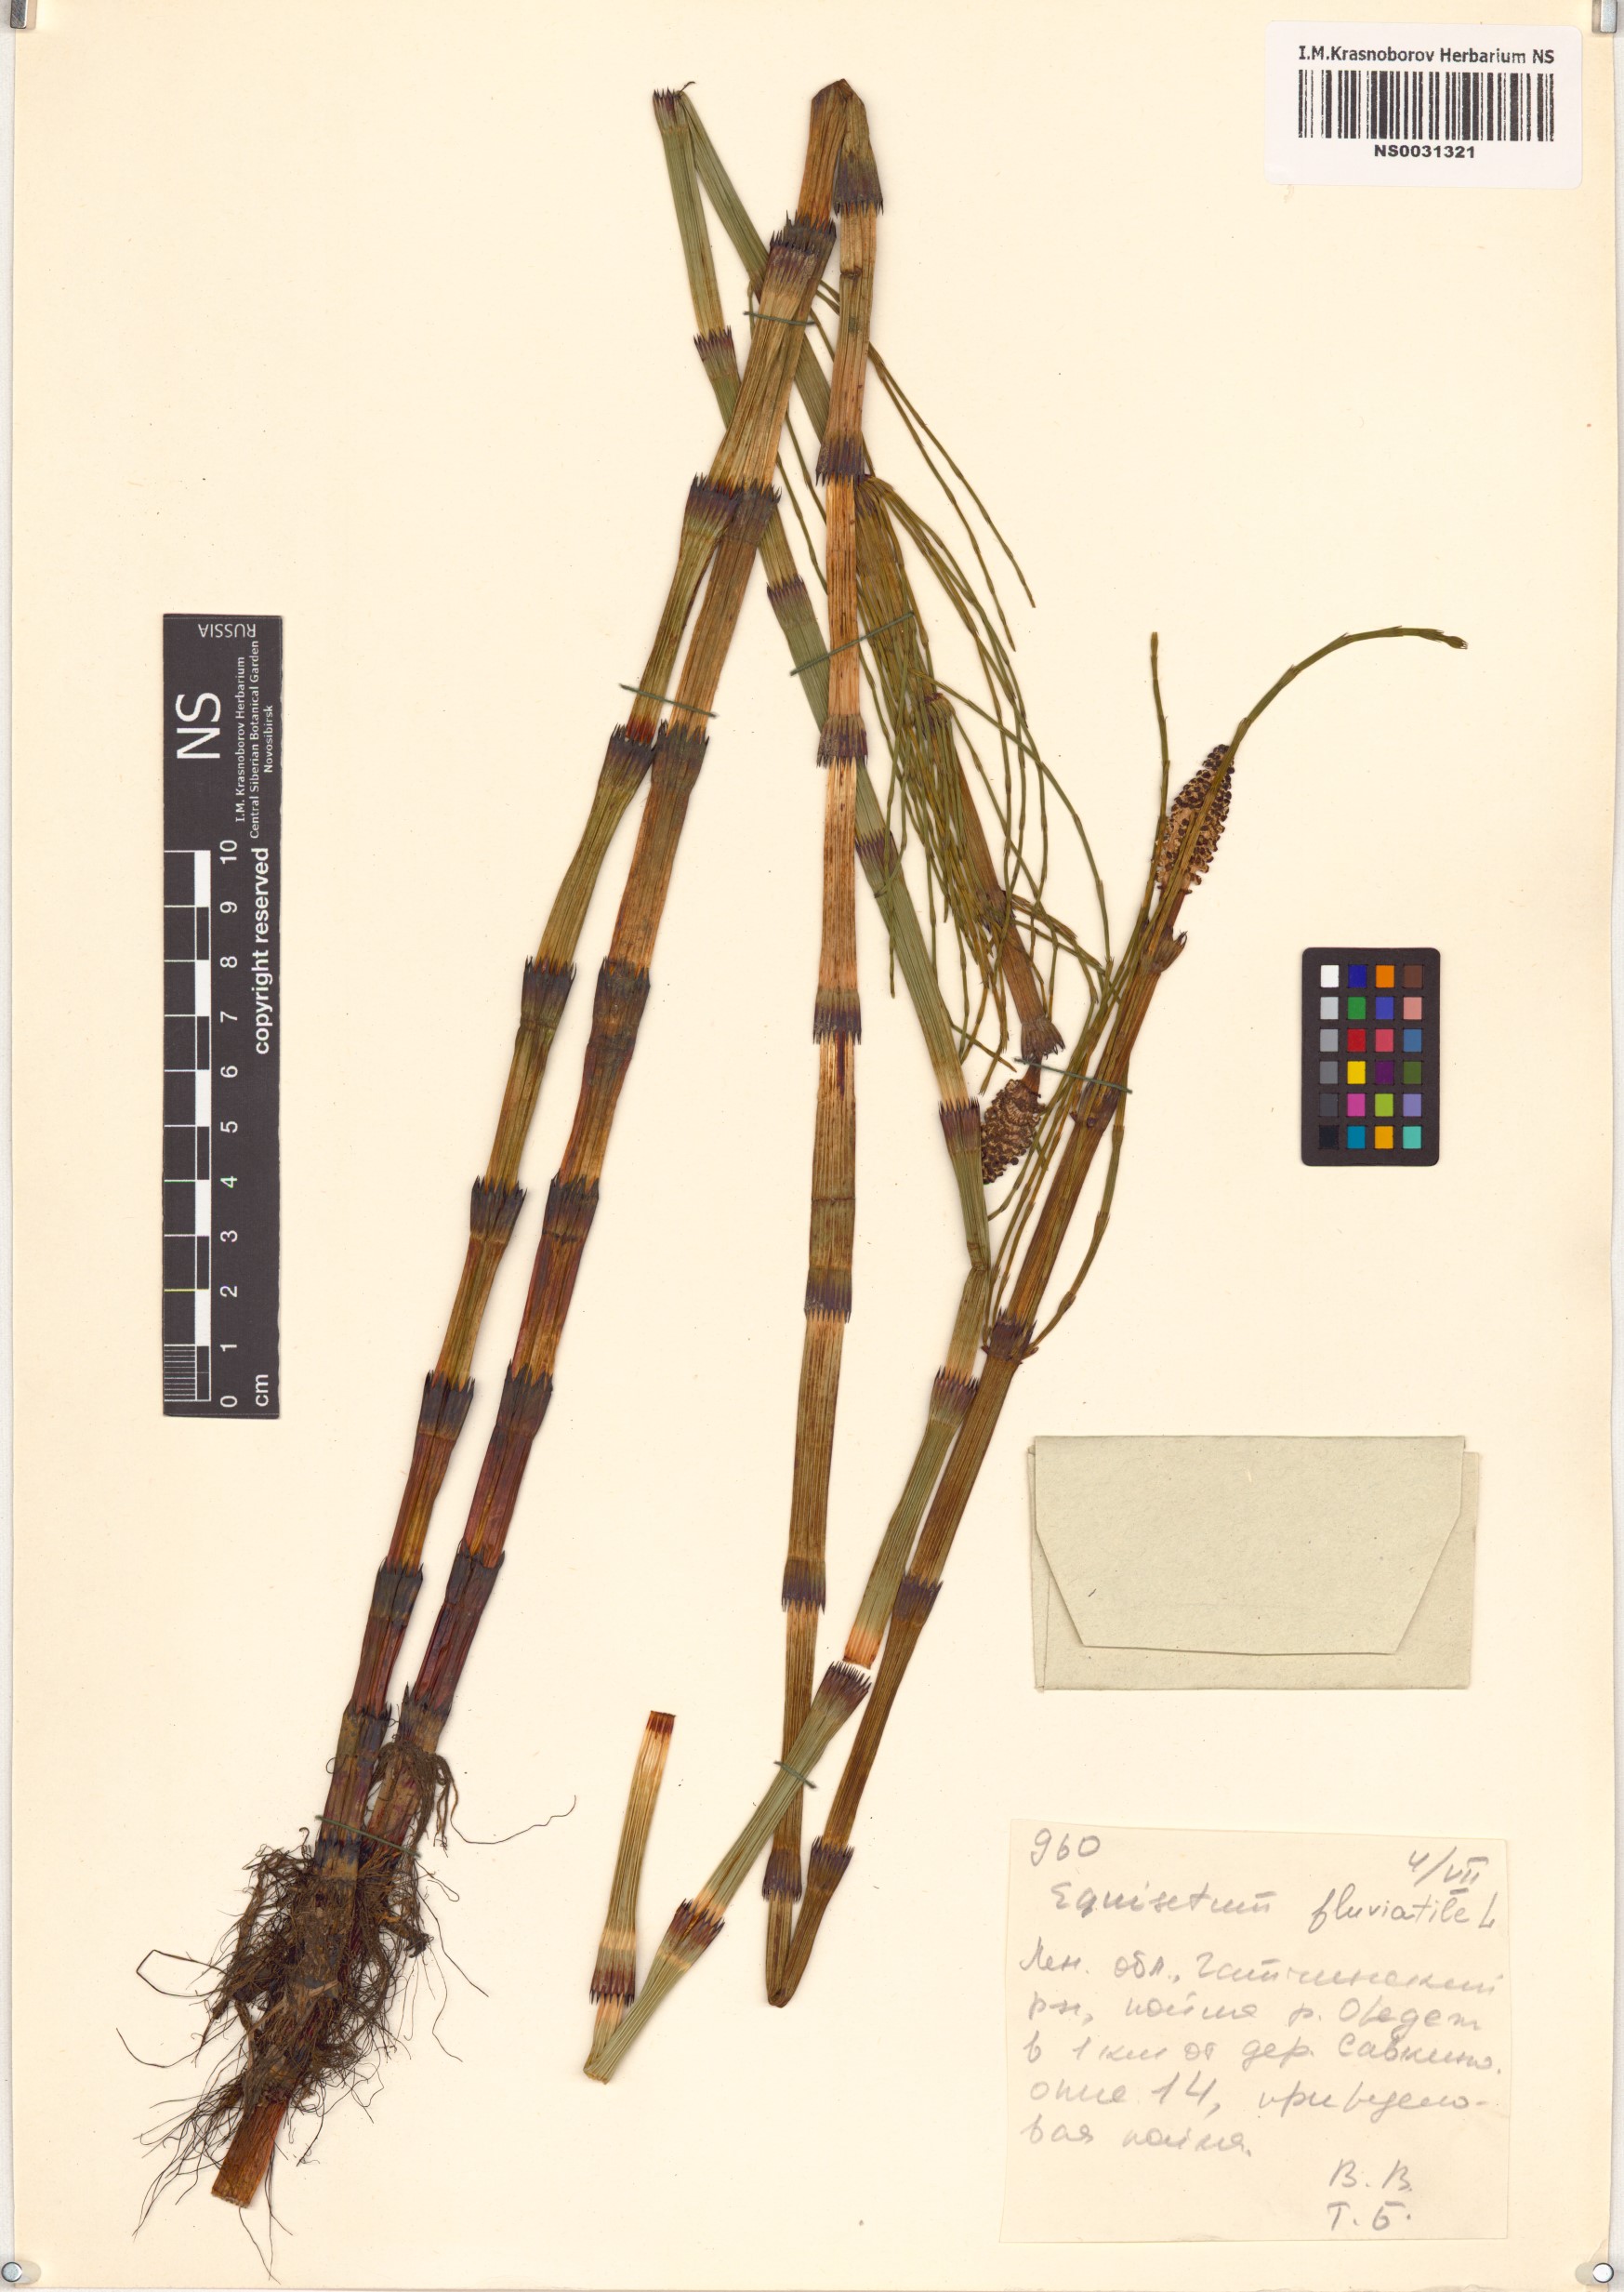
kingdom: Plantae
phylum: Tracheophyta
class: Polypodiopsida
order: Equisetales
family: Equisetaceae
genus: Equisetum
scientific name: Equisetum fluviatile
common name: Water horsetail
